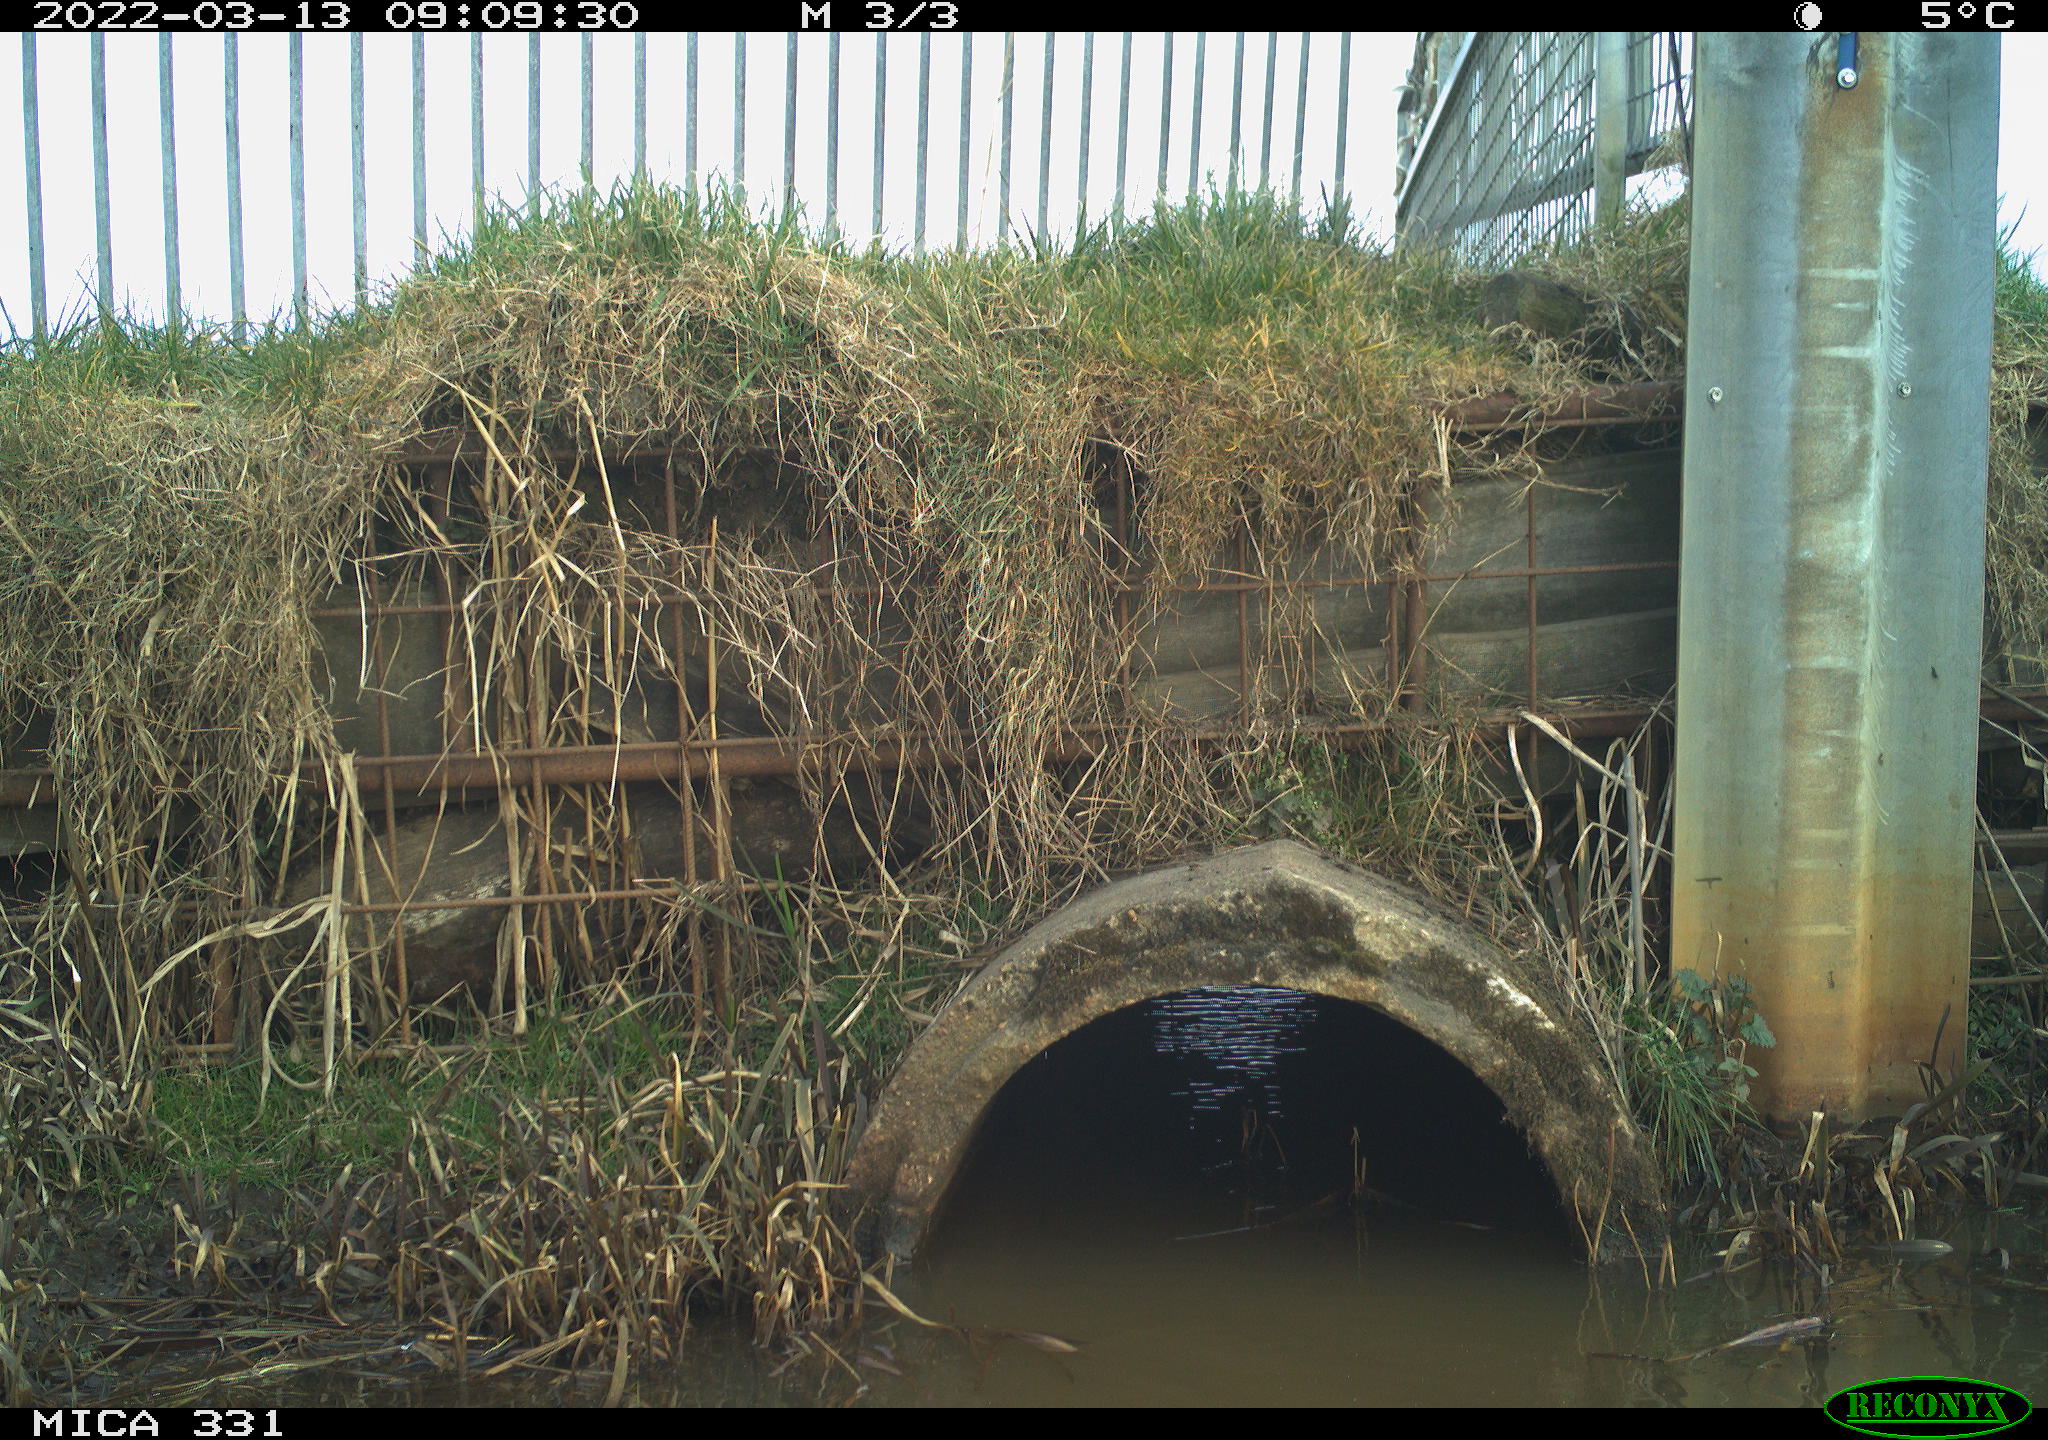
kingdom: Animalia
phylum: Chordata
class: Aves
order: Pelecaniformes
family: Ardeidae
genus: Ardea
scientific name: Ardea alba
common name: Great egret
